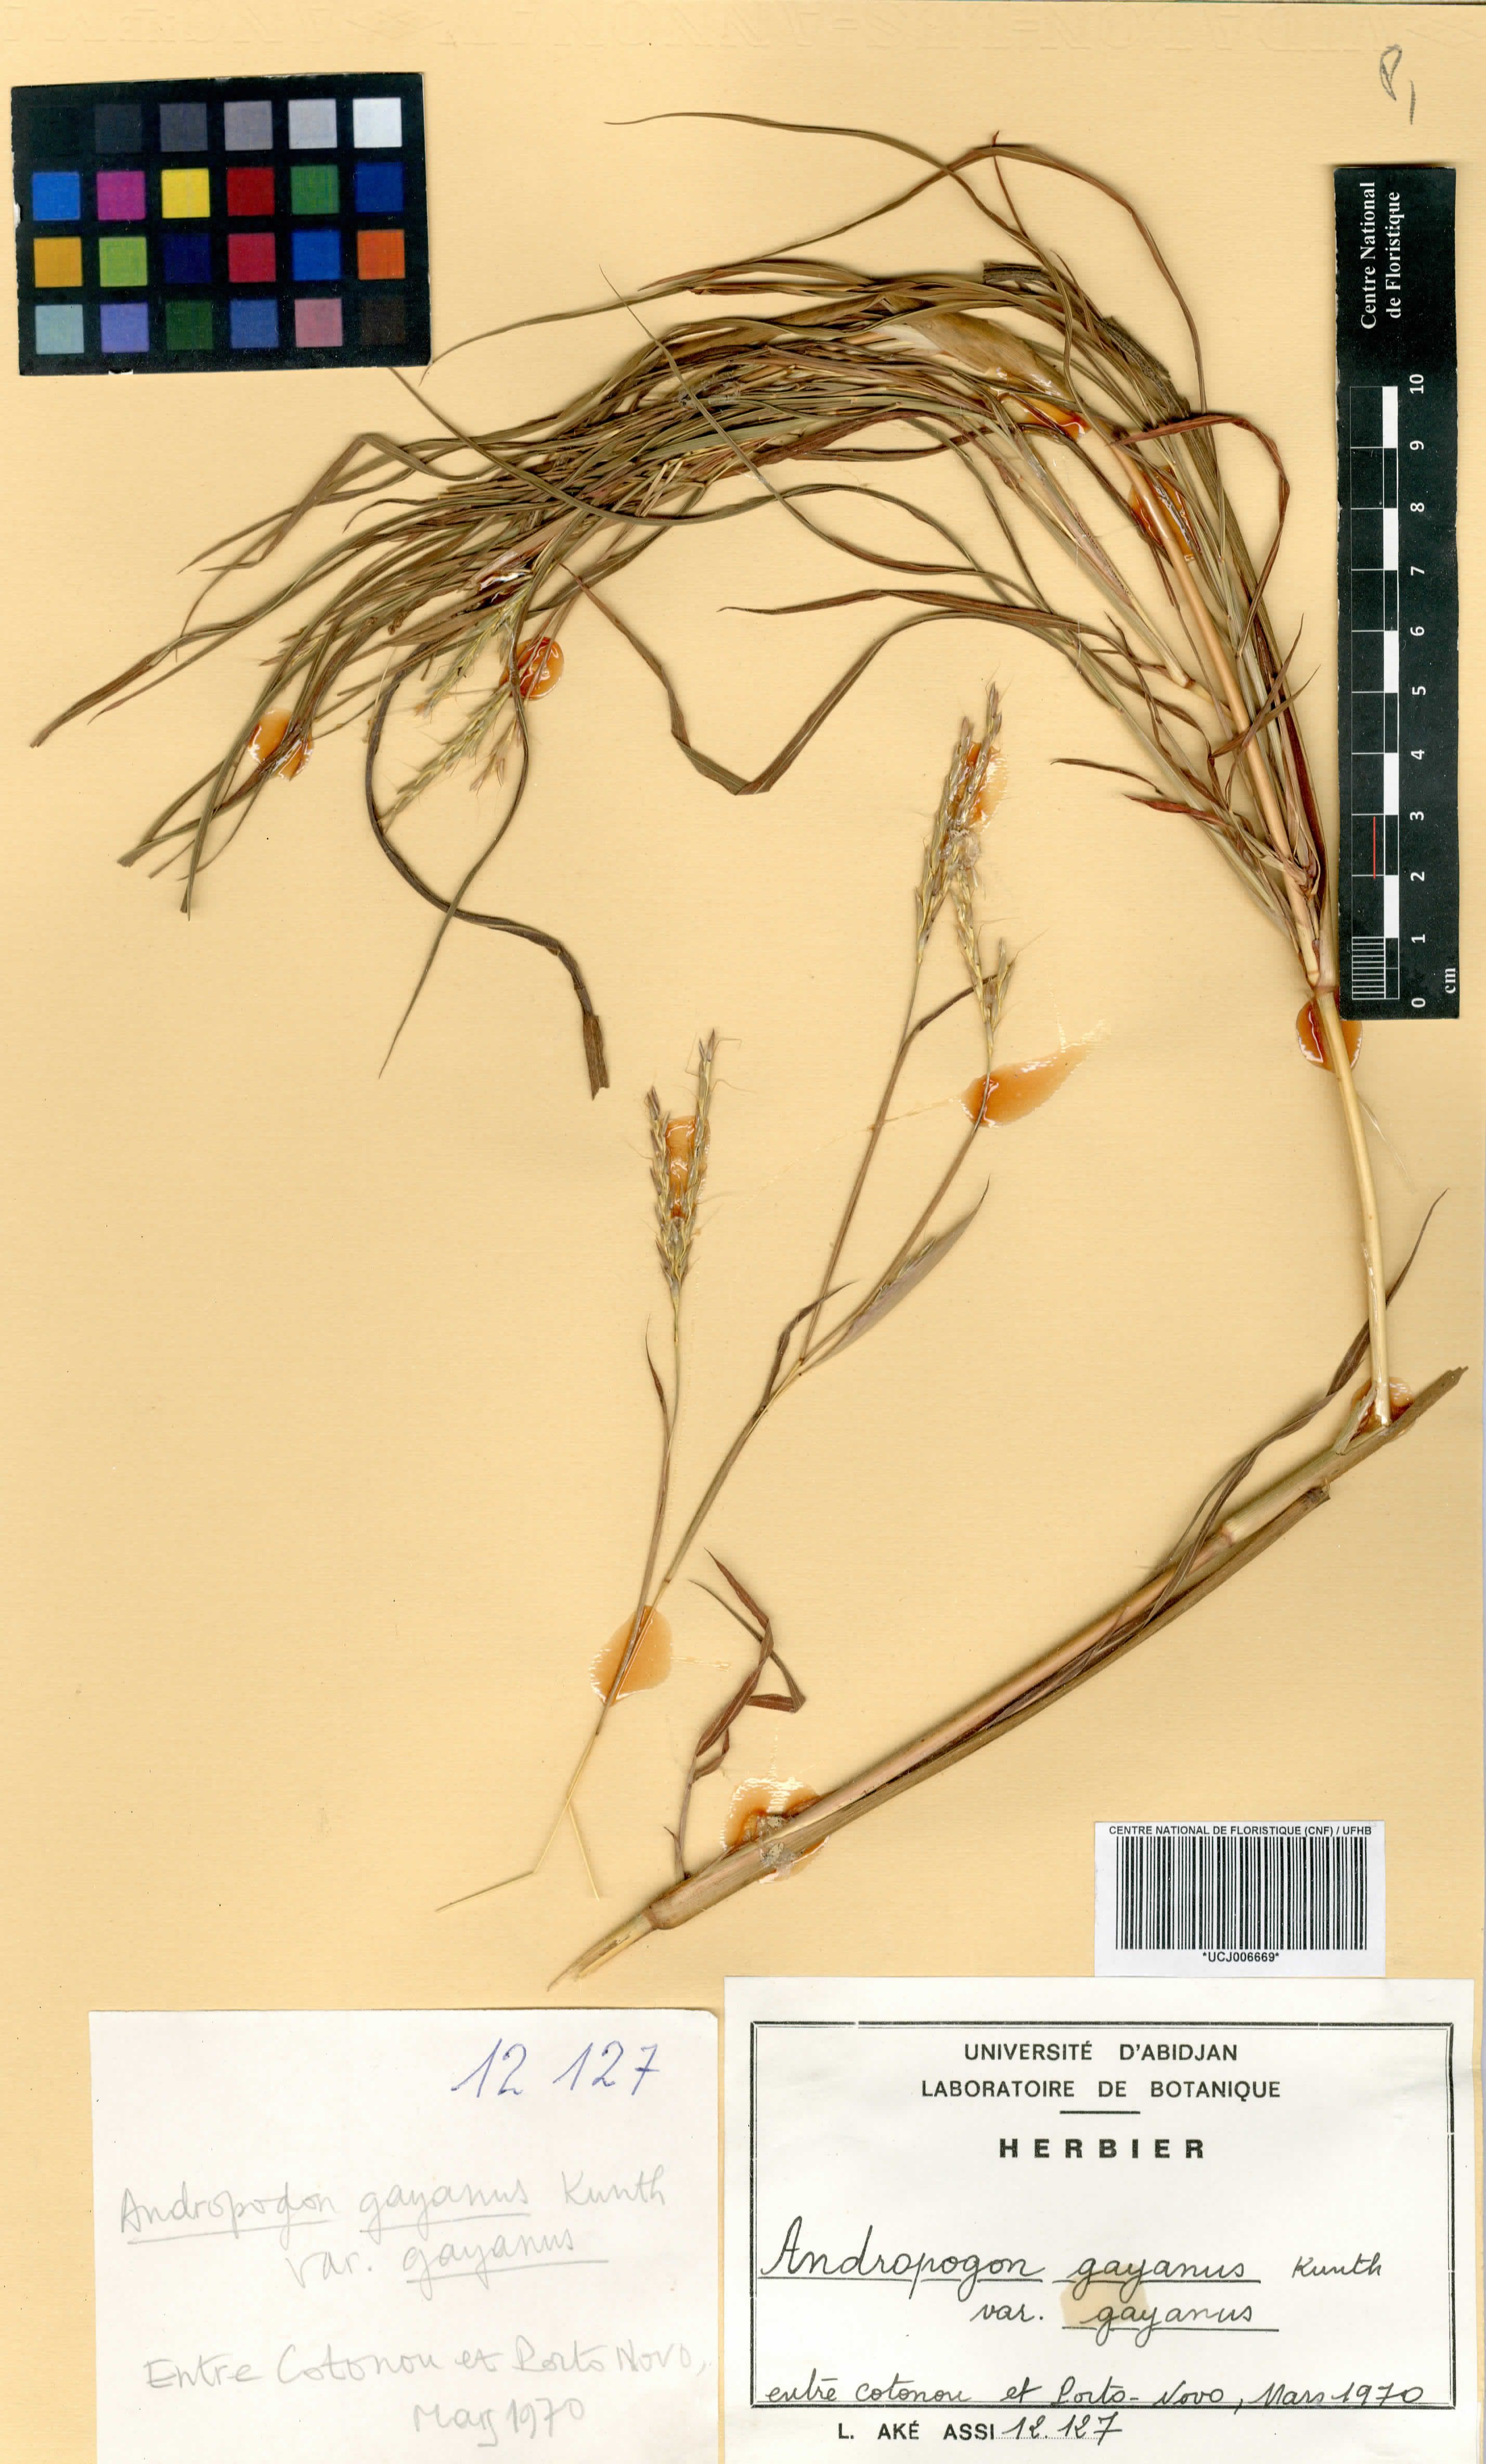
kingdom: Plantae
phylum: Tracheophyta
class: Liliopsida
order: Poales
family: Poaceae
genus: Andropogon
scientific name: Andropogon gayanus
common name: Tambuki grass
